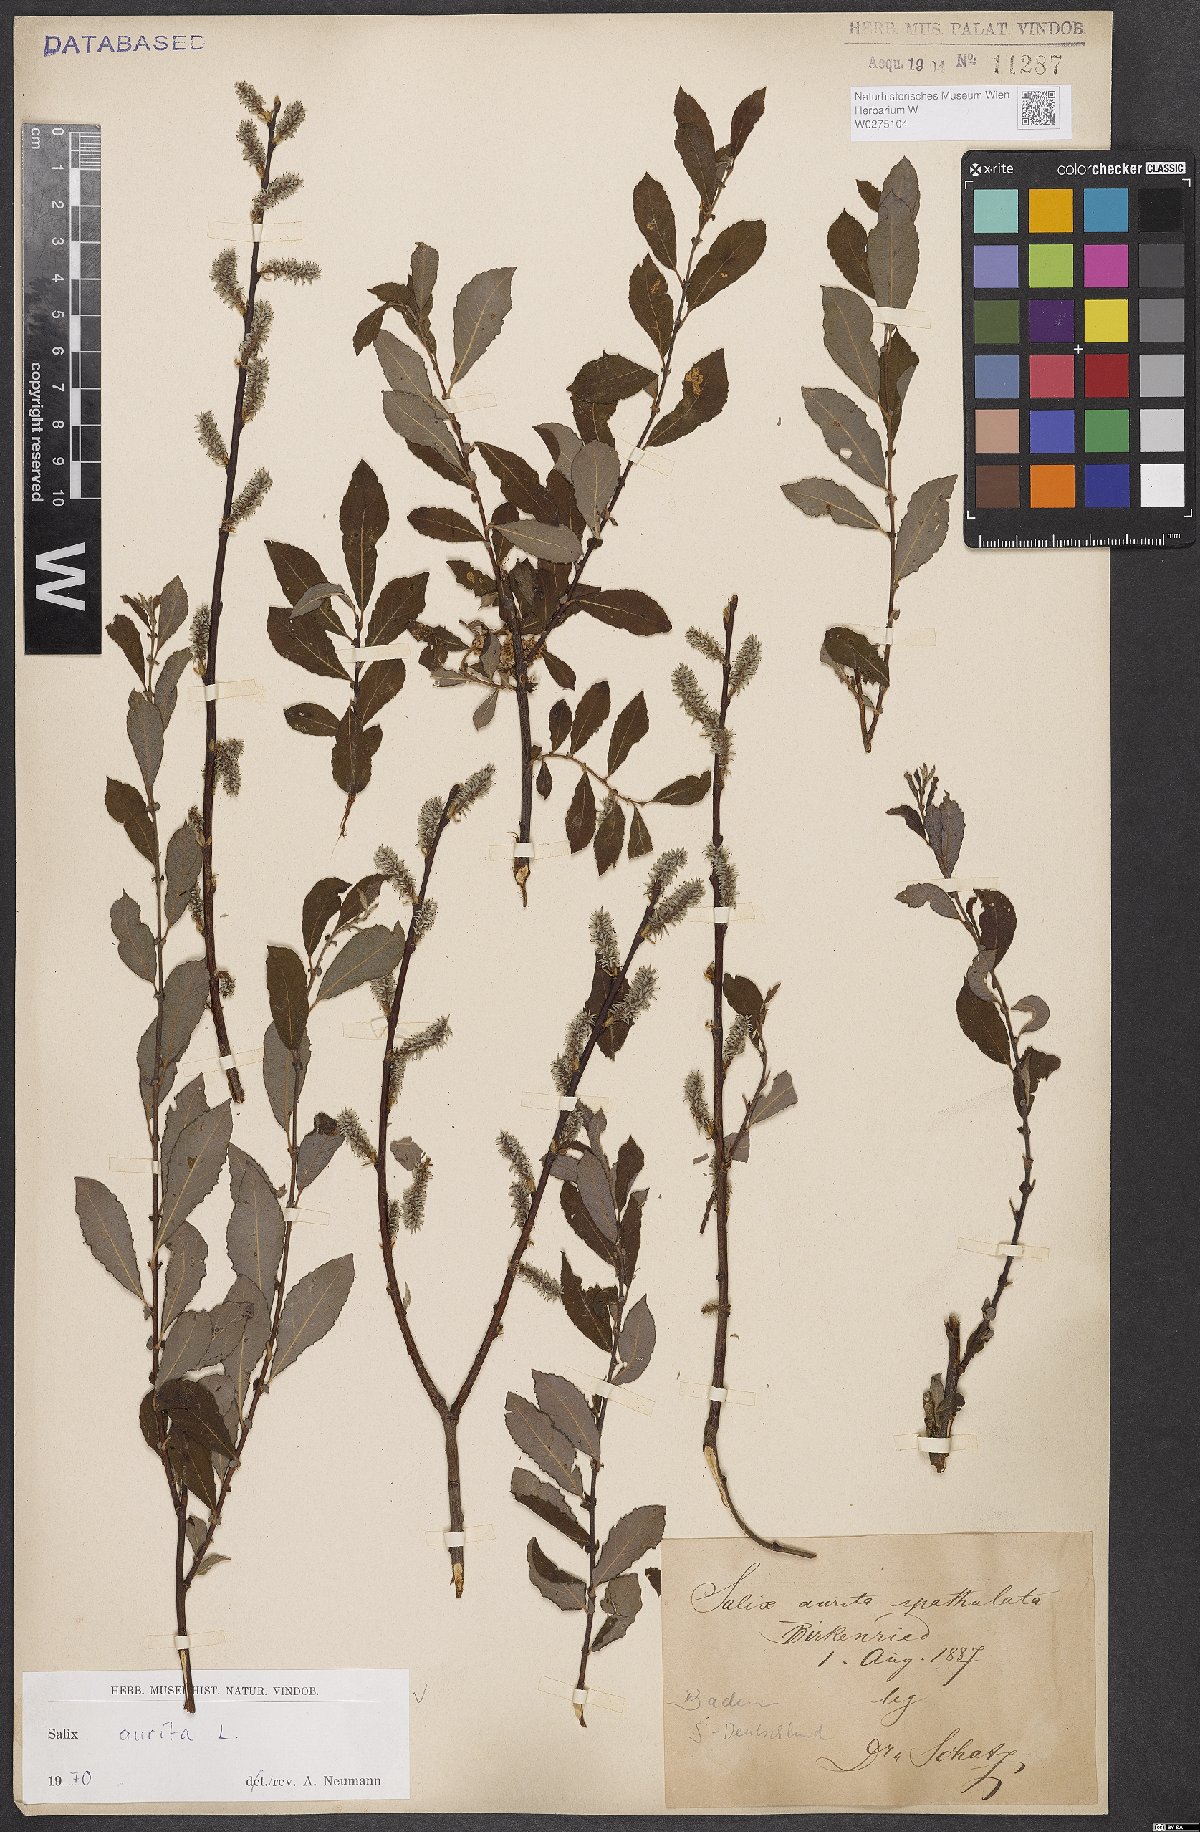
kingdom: Plantae
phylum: Tracheophyta
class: Magnoliopsida
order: Malpighiales
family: Salicaceae
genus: Salix
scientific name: Salix aurita
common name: Eared willow
